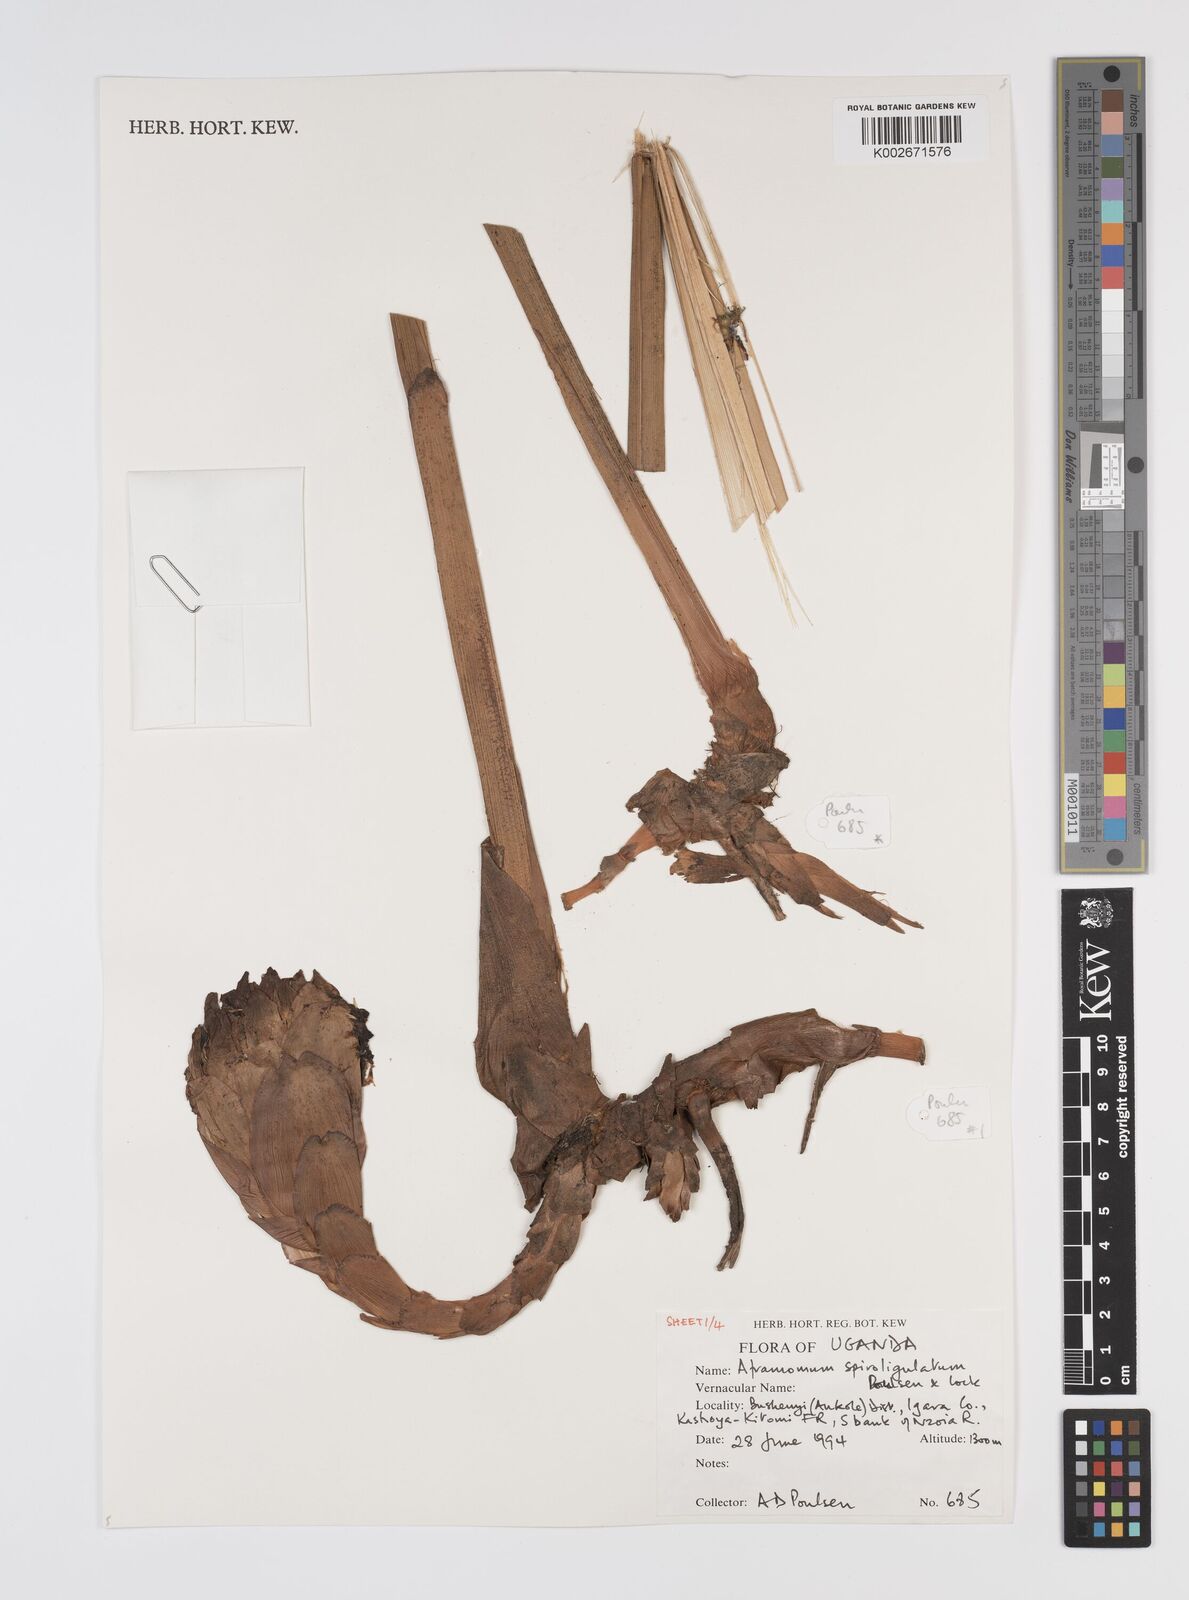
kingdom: Plantae
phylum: Tracheophyta
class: Liliopsida
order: Zingiberales
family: Zingiberaceae
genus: Aframomum
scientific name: Aframomum spiroligulatum
